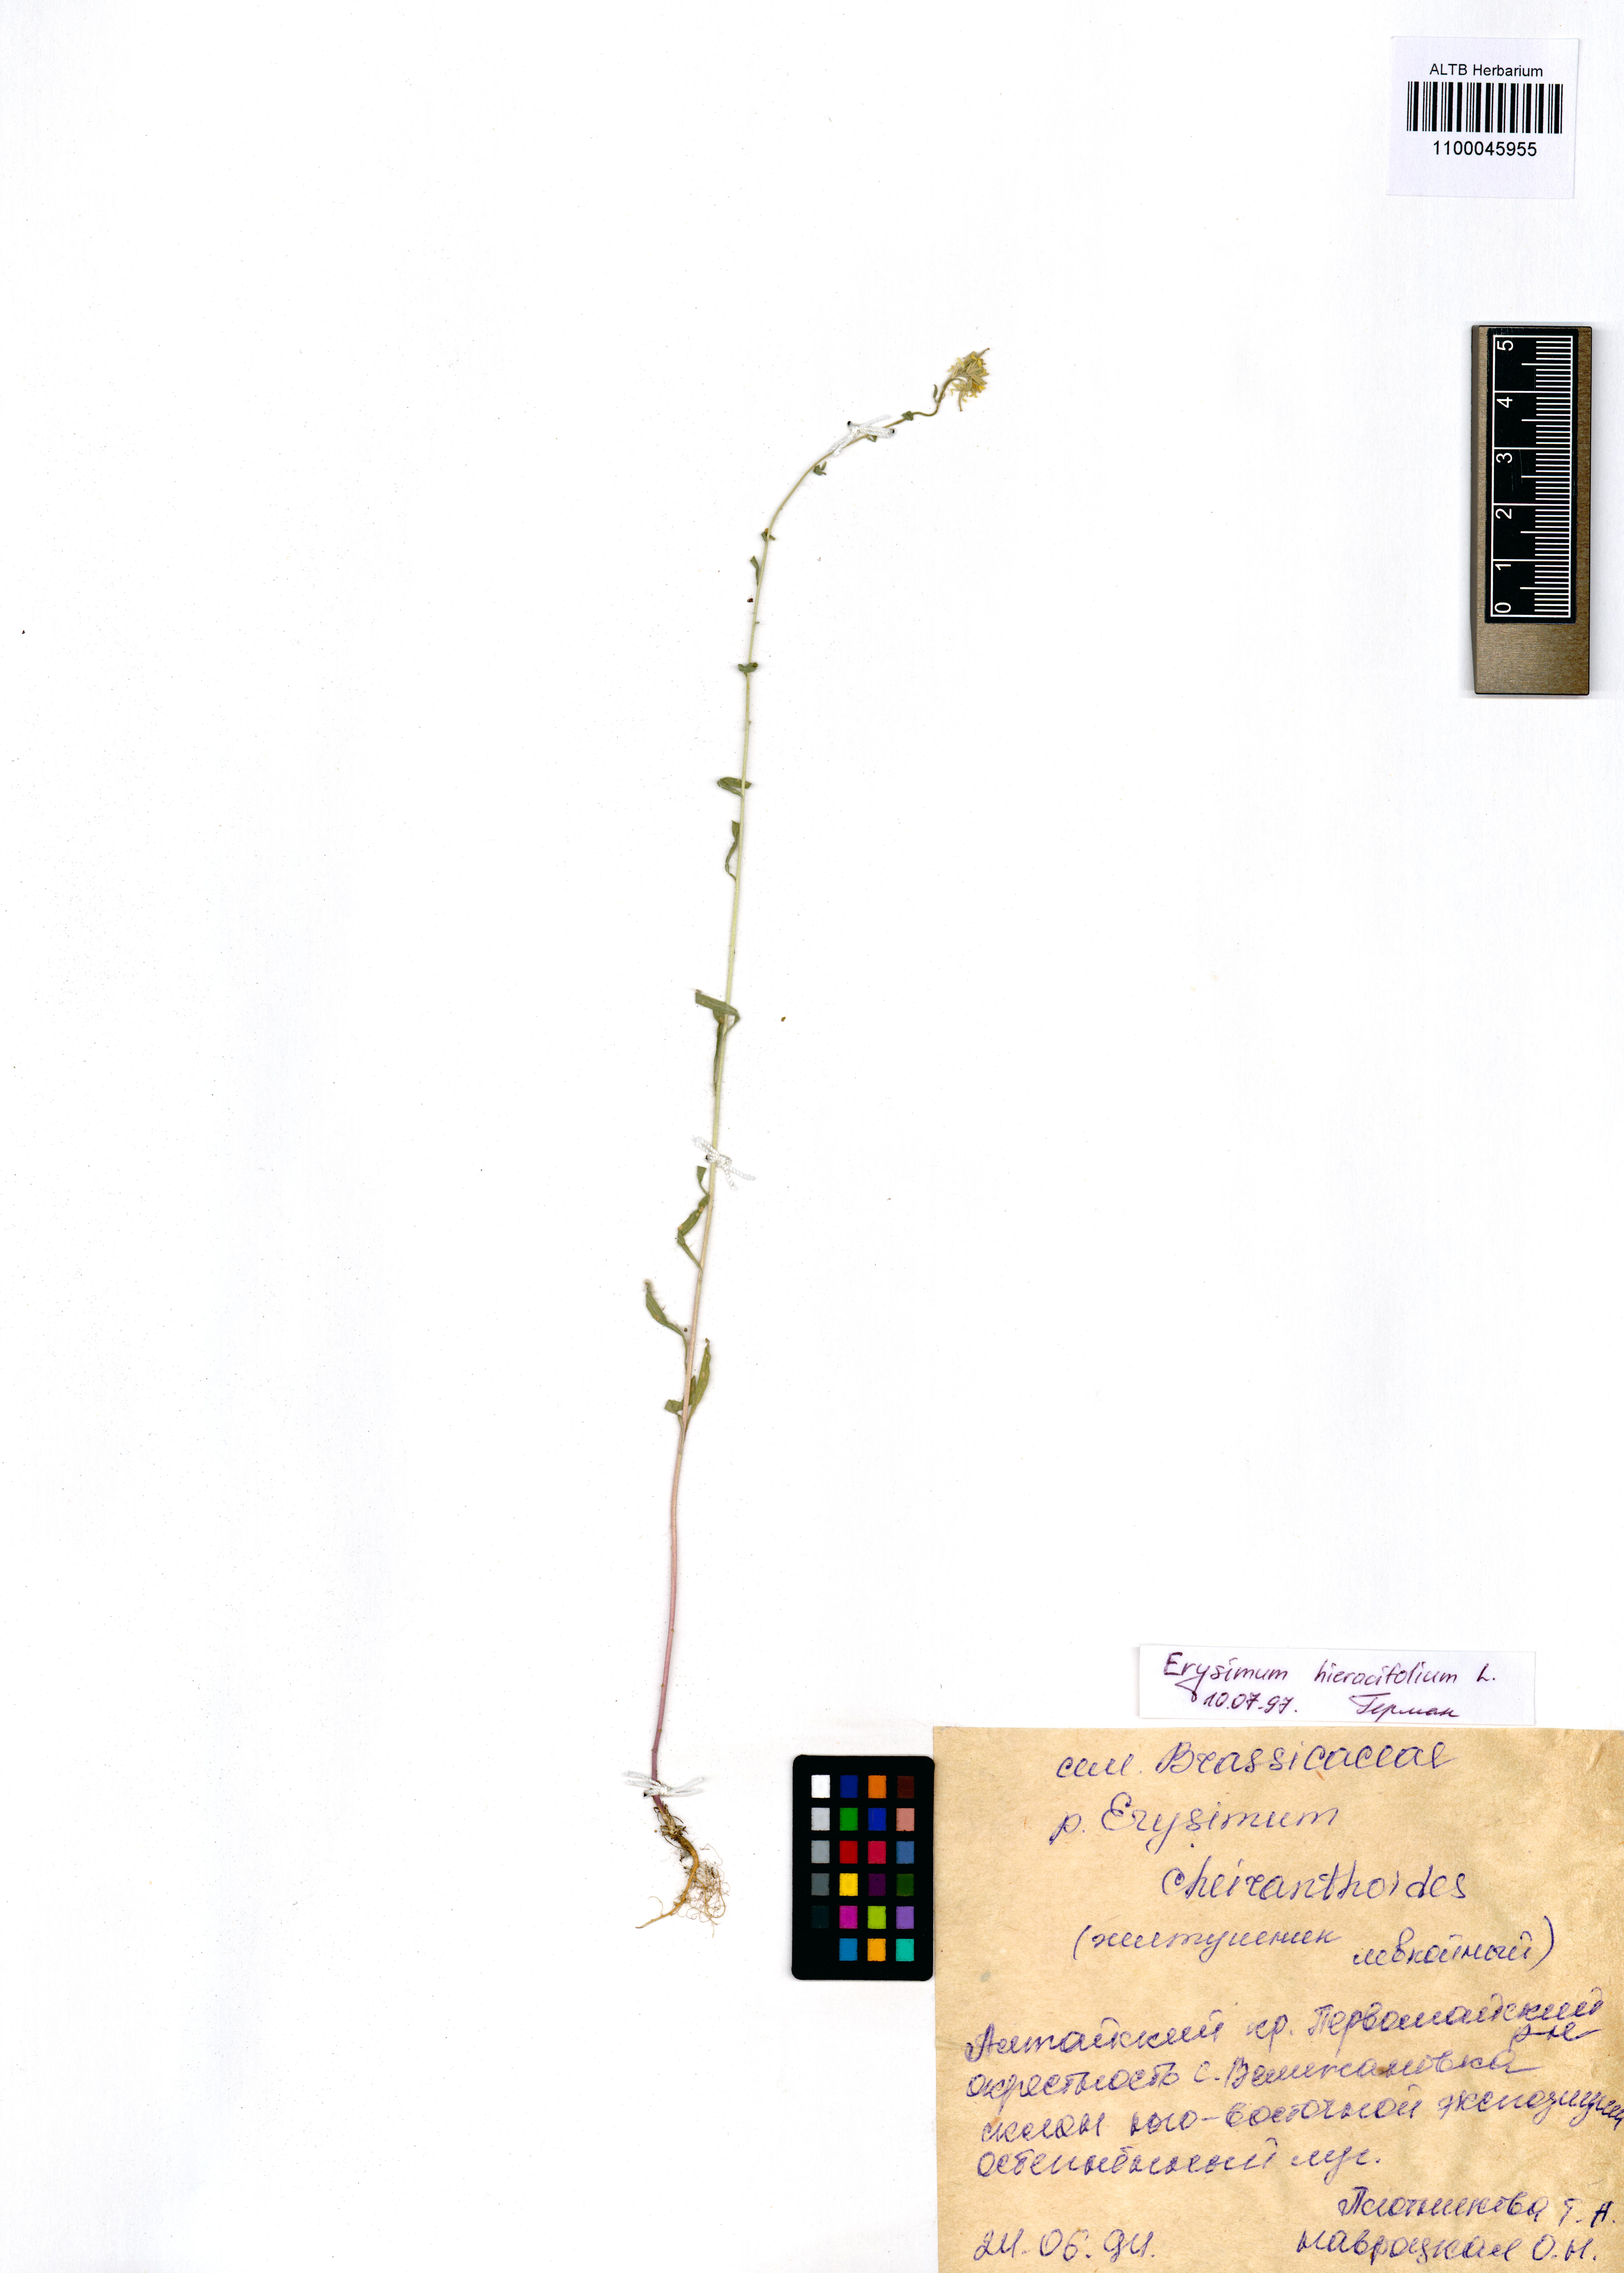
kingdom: Plantae
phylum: Tracheophyta
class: Magnoliopsida
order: Brassicales
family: Brassicaceae
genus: Erysimum
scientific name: Erysimum hieraciifolium
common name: European wallflower
